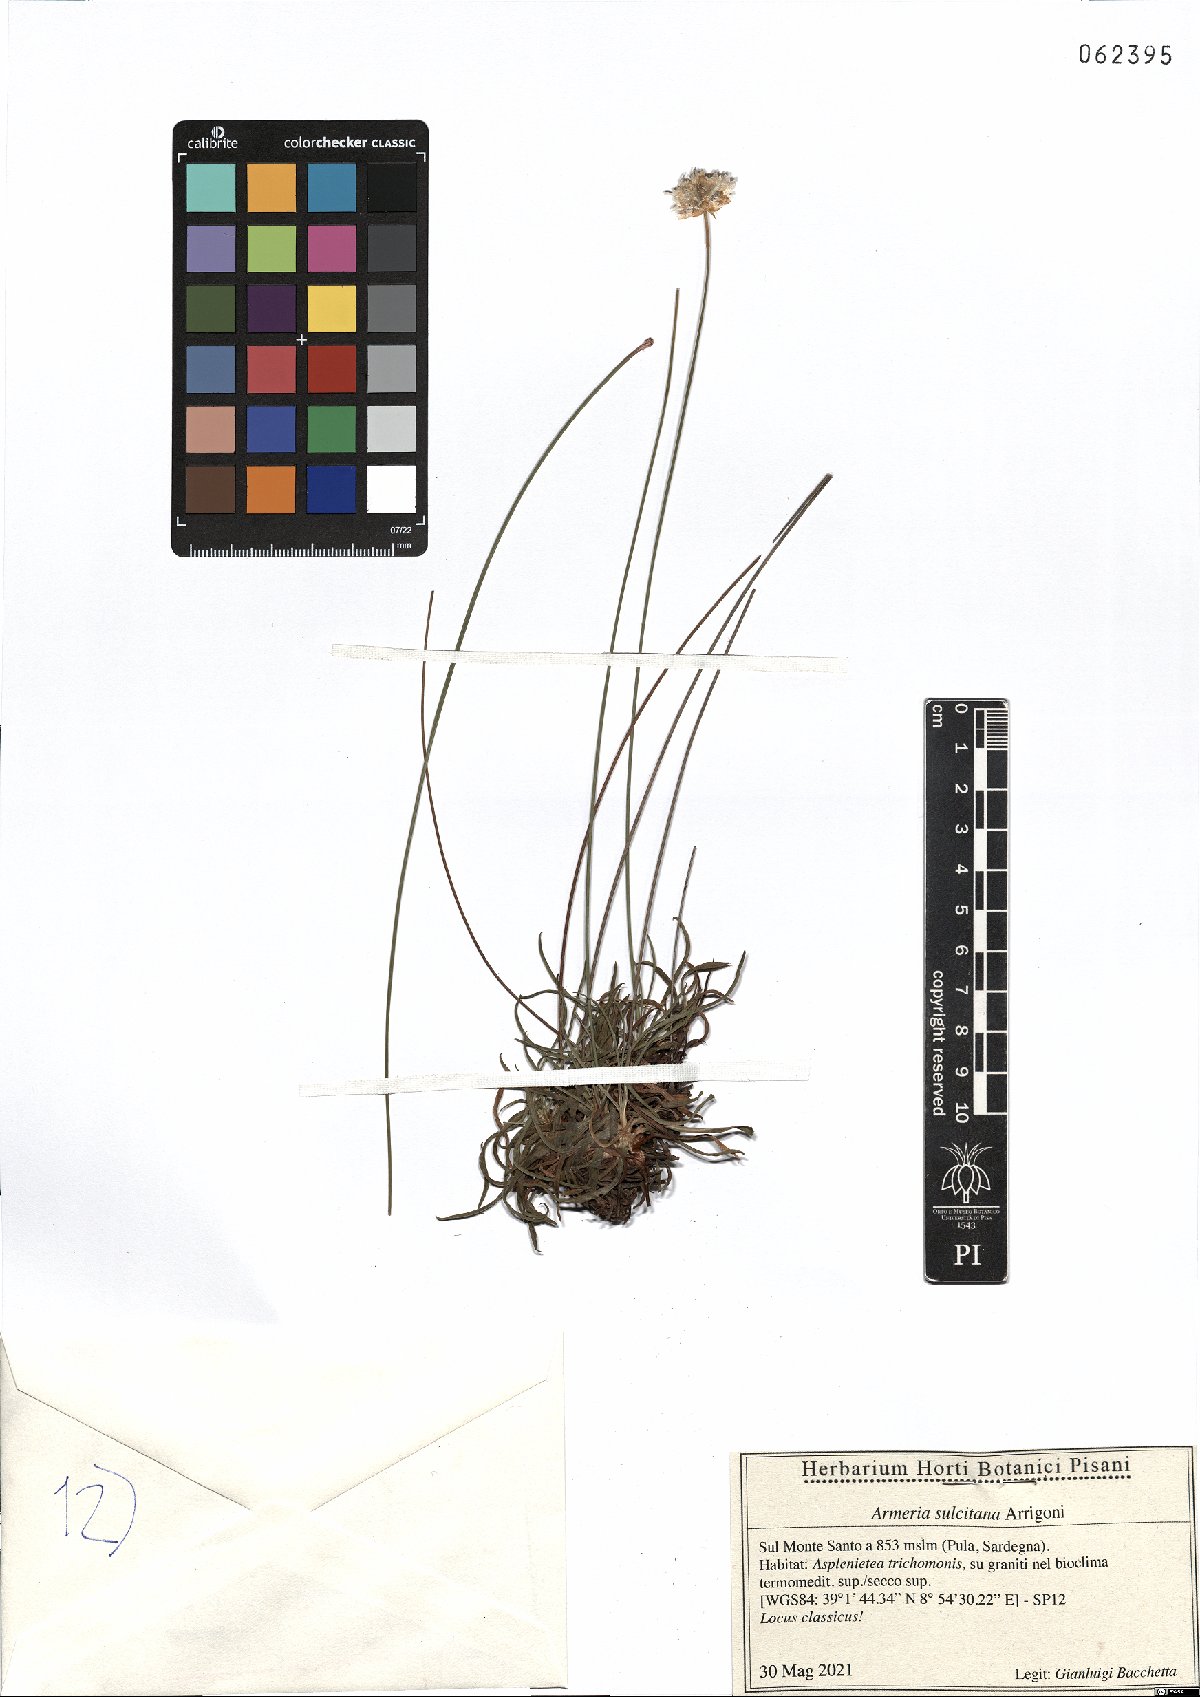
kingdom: Plantae
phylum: Tracheophyta
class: Magnoliopsida
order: Caryophyllales
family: Plumbaginaceae
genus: Armeria
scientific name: Armeria sulcitana
